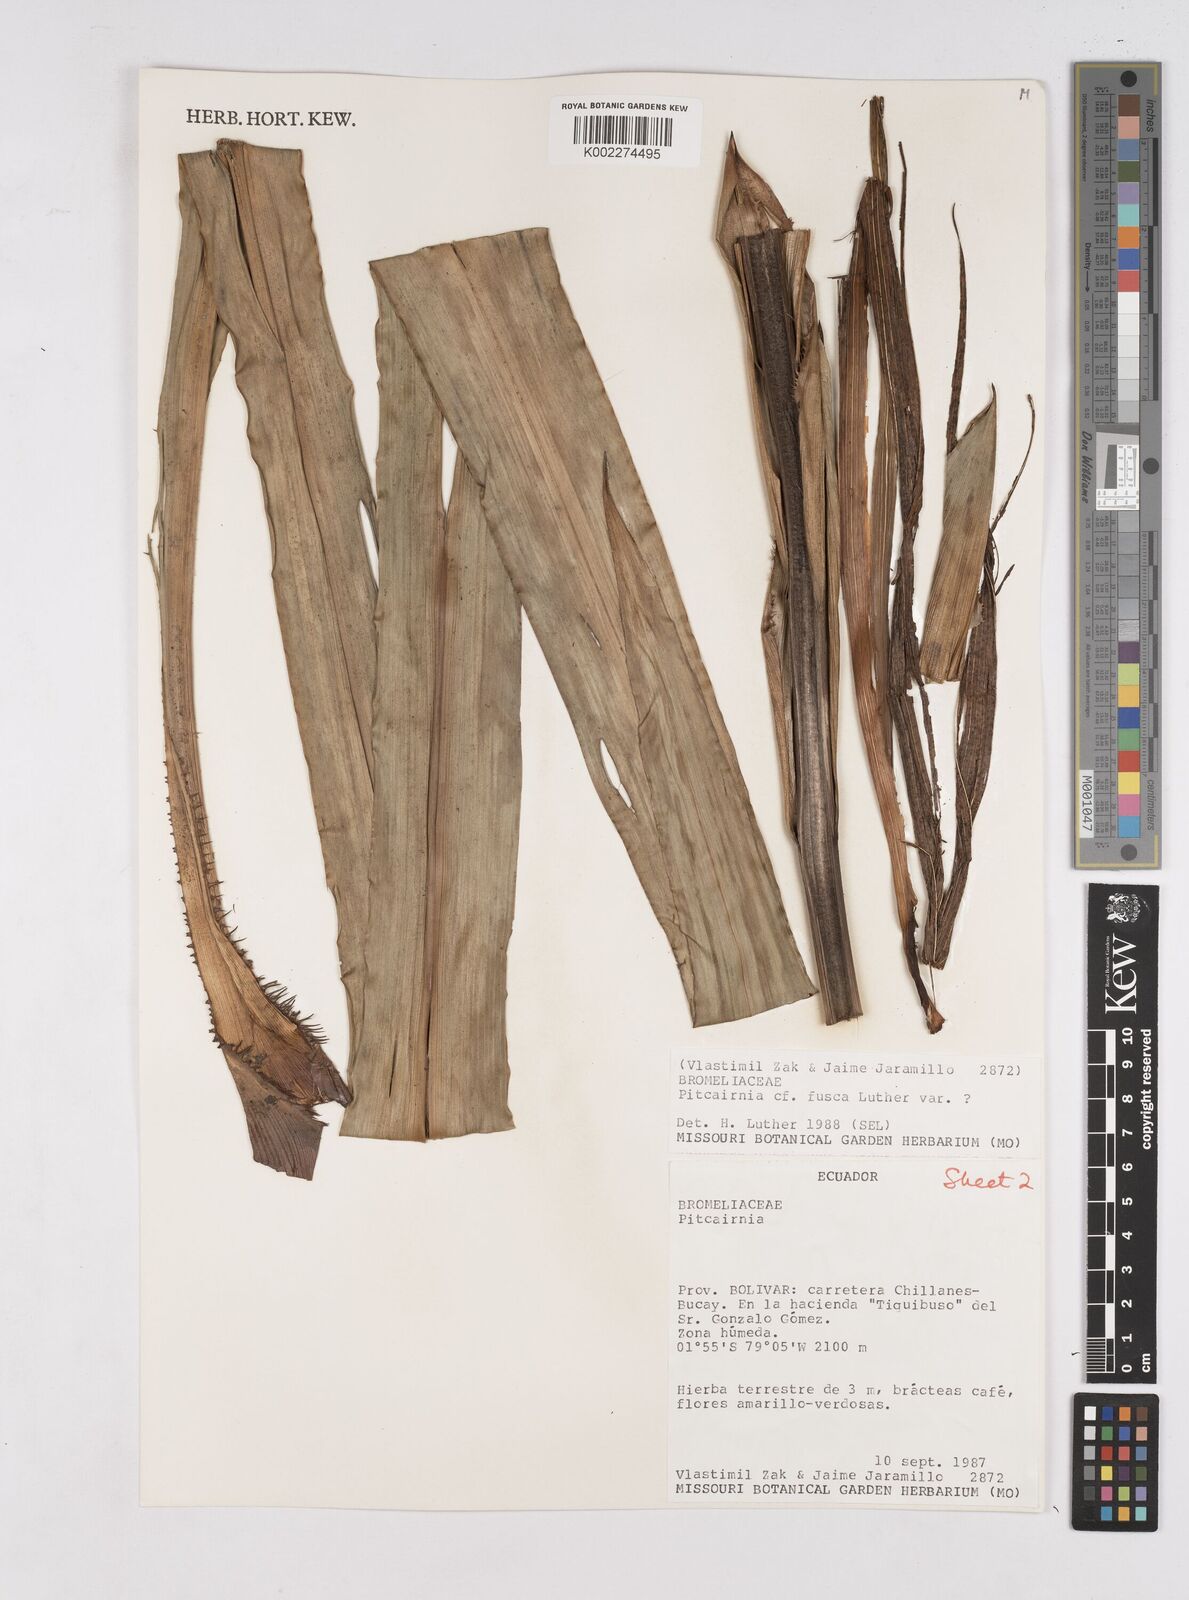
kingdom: Plantae
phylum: Tracheophyta
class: Liliopsida
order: Poales
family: Bromeliaceae
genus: Pitcairnia
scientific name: Pitcairnia fusca
